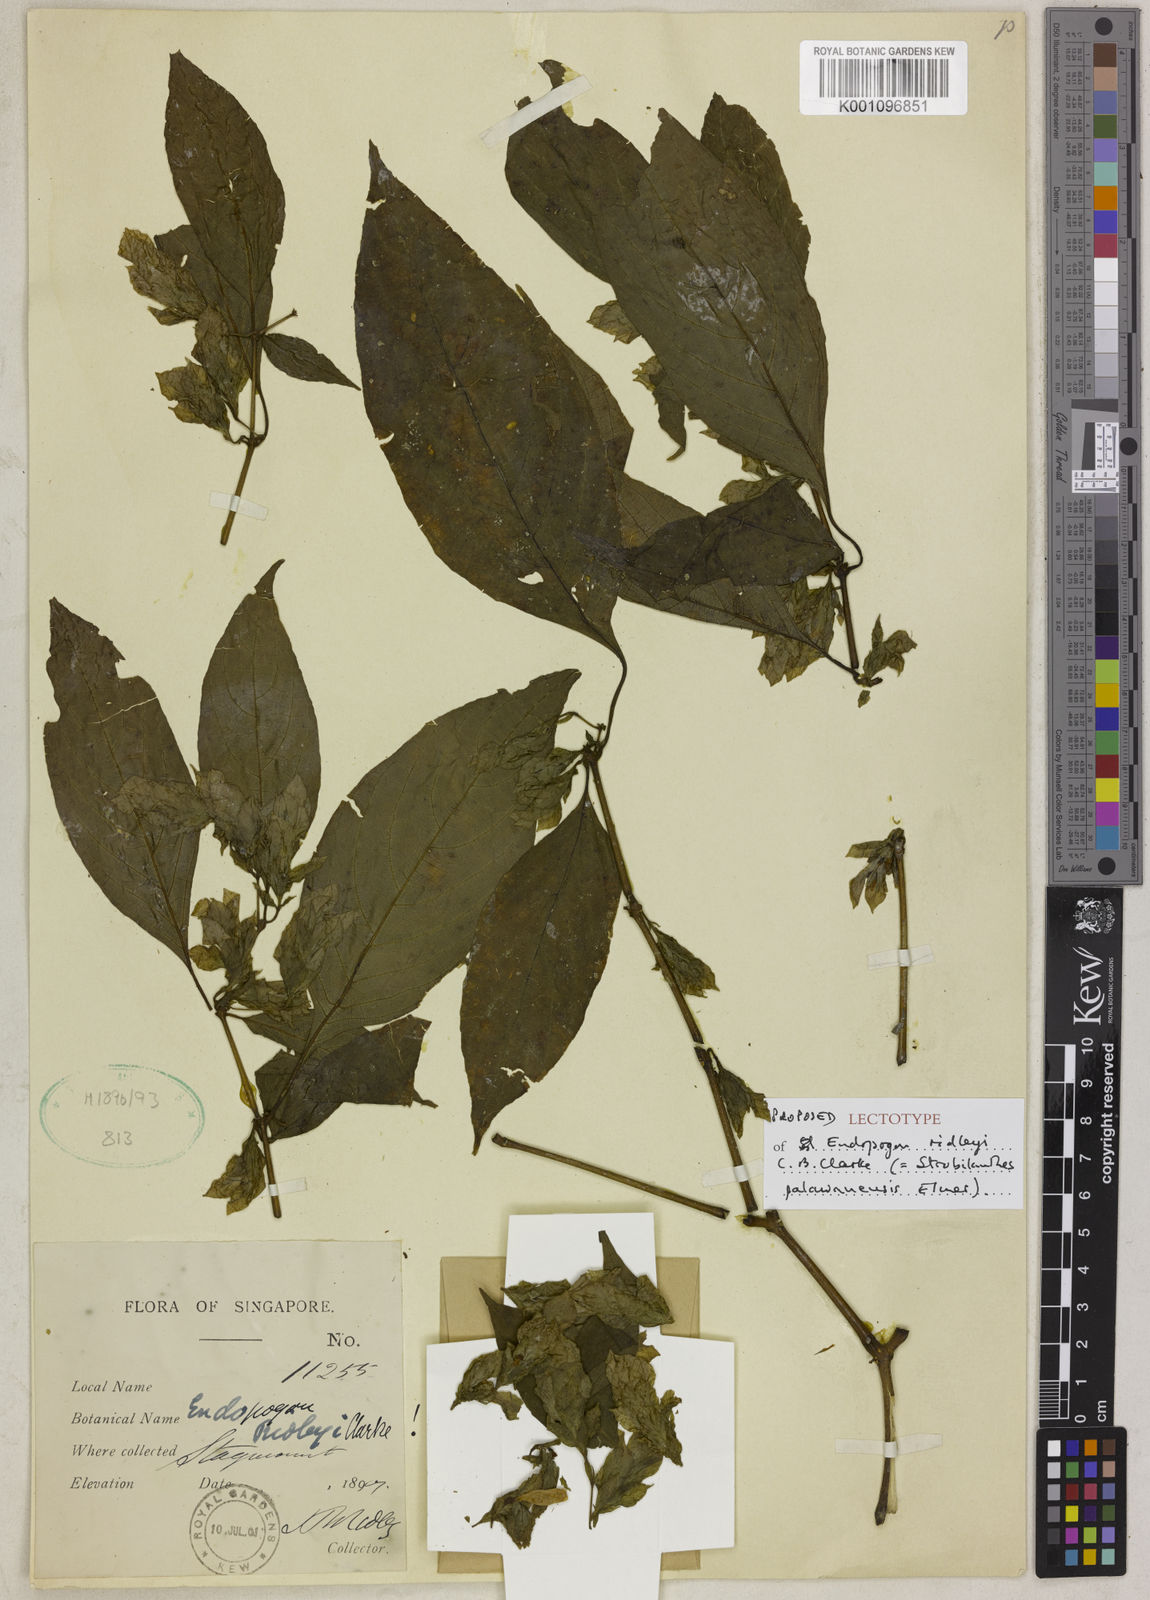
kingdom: Plantae
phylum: Tracheophyta
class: Magnoliopsida
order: Lamiales
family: Acanthaceae
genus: Strobilanthes
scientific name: Strobilanthes palawanensis
